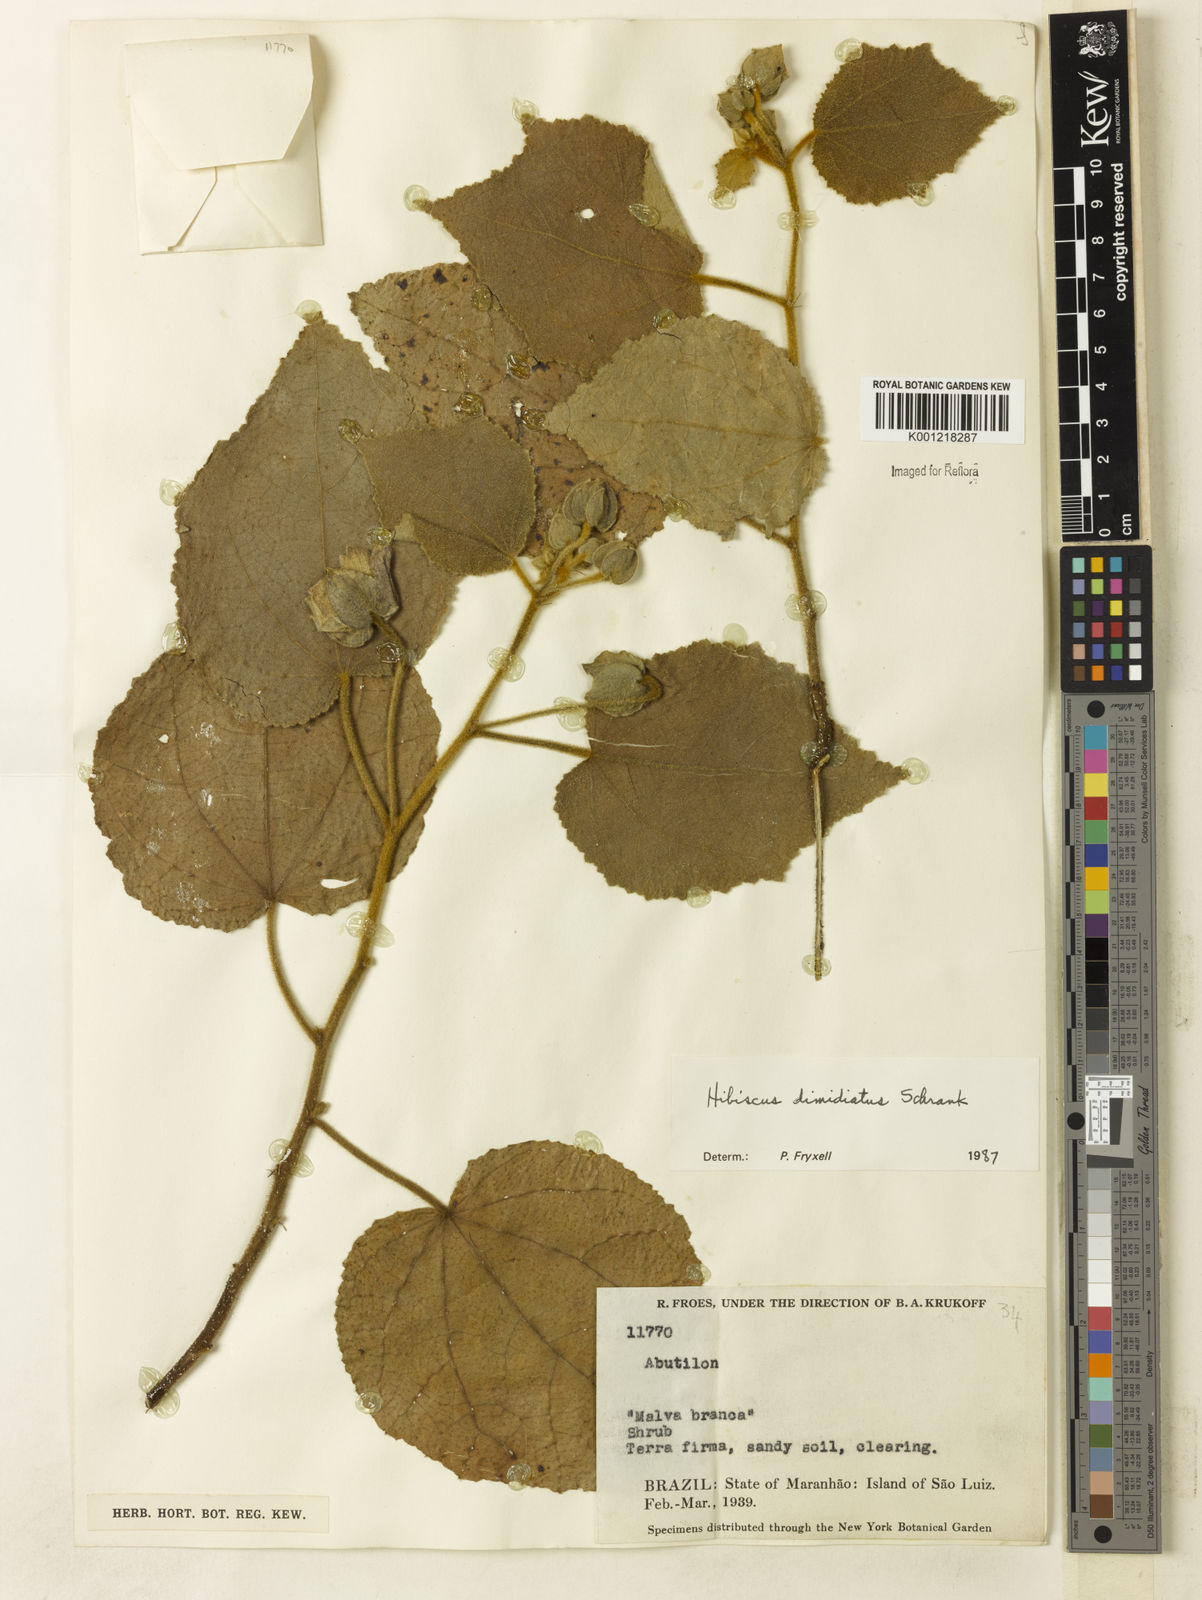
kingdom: Plantae
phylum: Tracheophyta
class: Magnoliopsida
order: Malvales
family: Malvaceae
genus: Hibiscus
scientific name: Hibiscus dimidiatus
